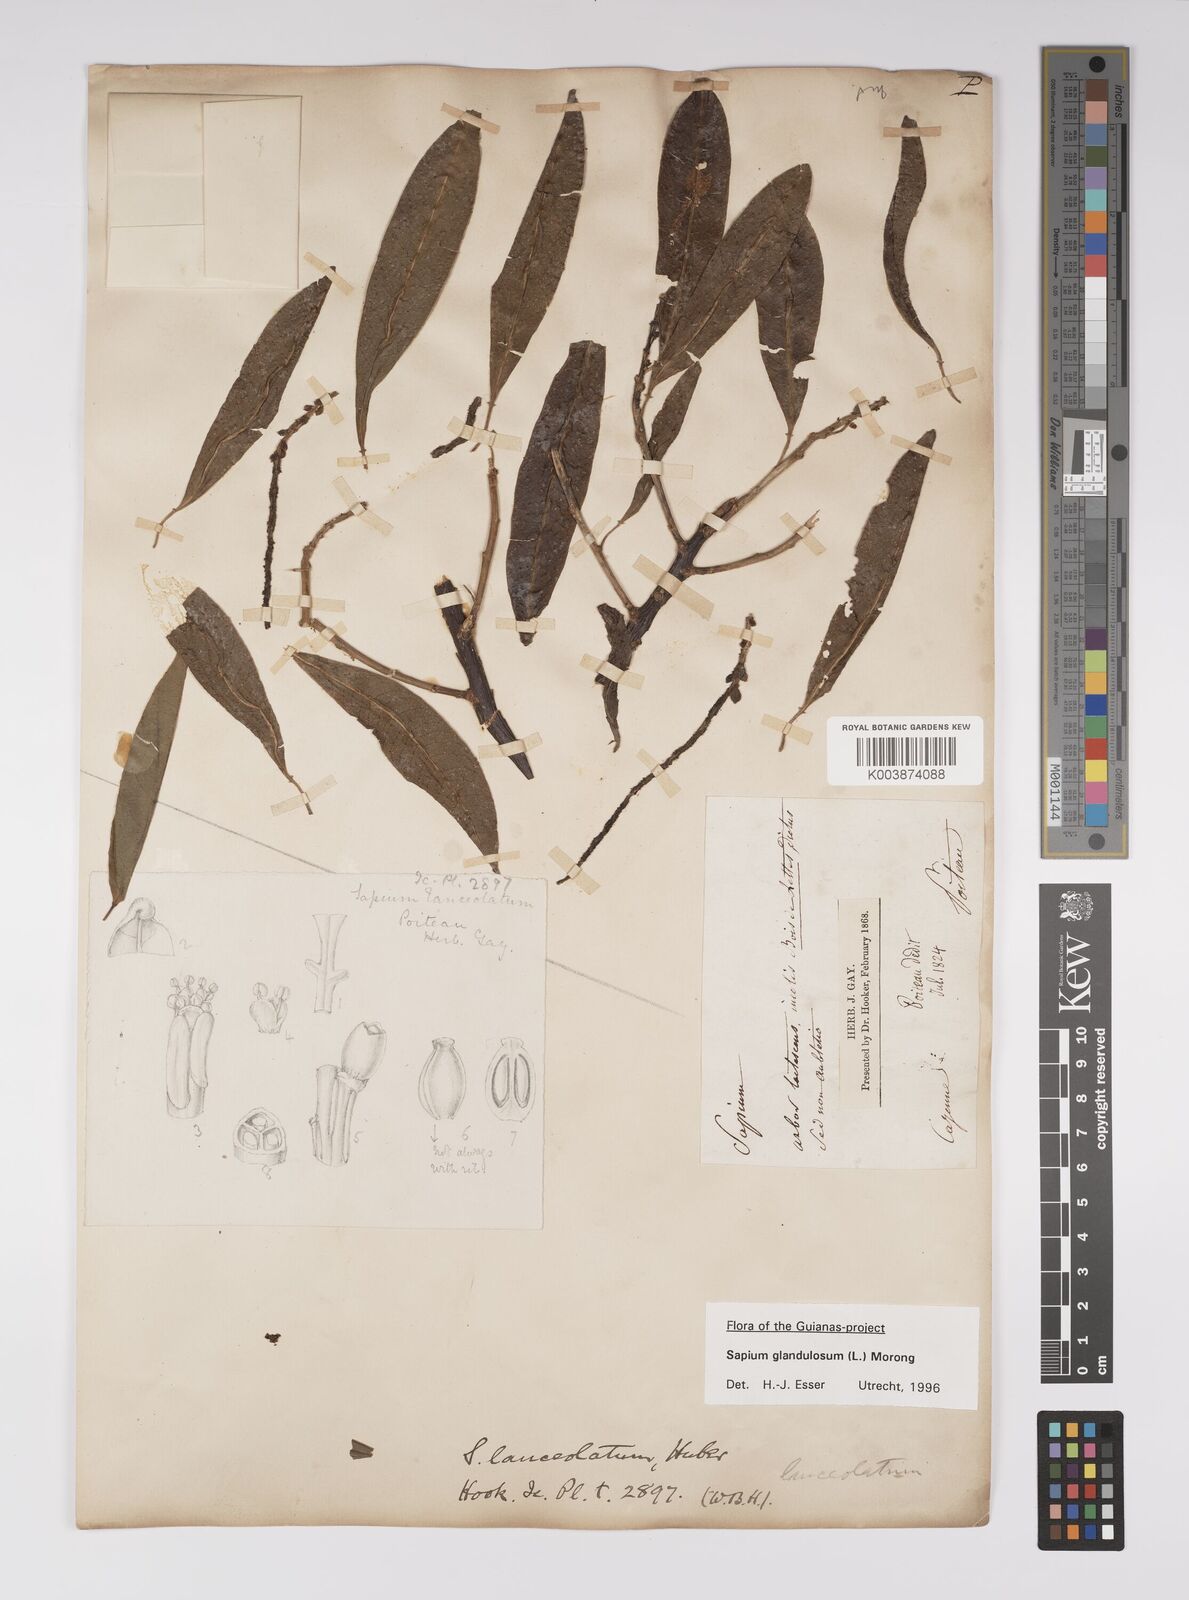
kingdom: Plantae
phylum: Tracheophyta
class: Magnoliopsida
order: Malpighiales
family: Euphorbiaceae
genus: Sapium
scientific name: Sapium glandulosum
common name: Milktree
